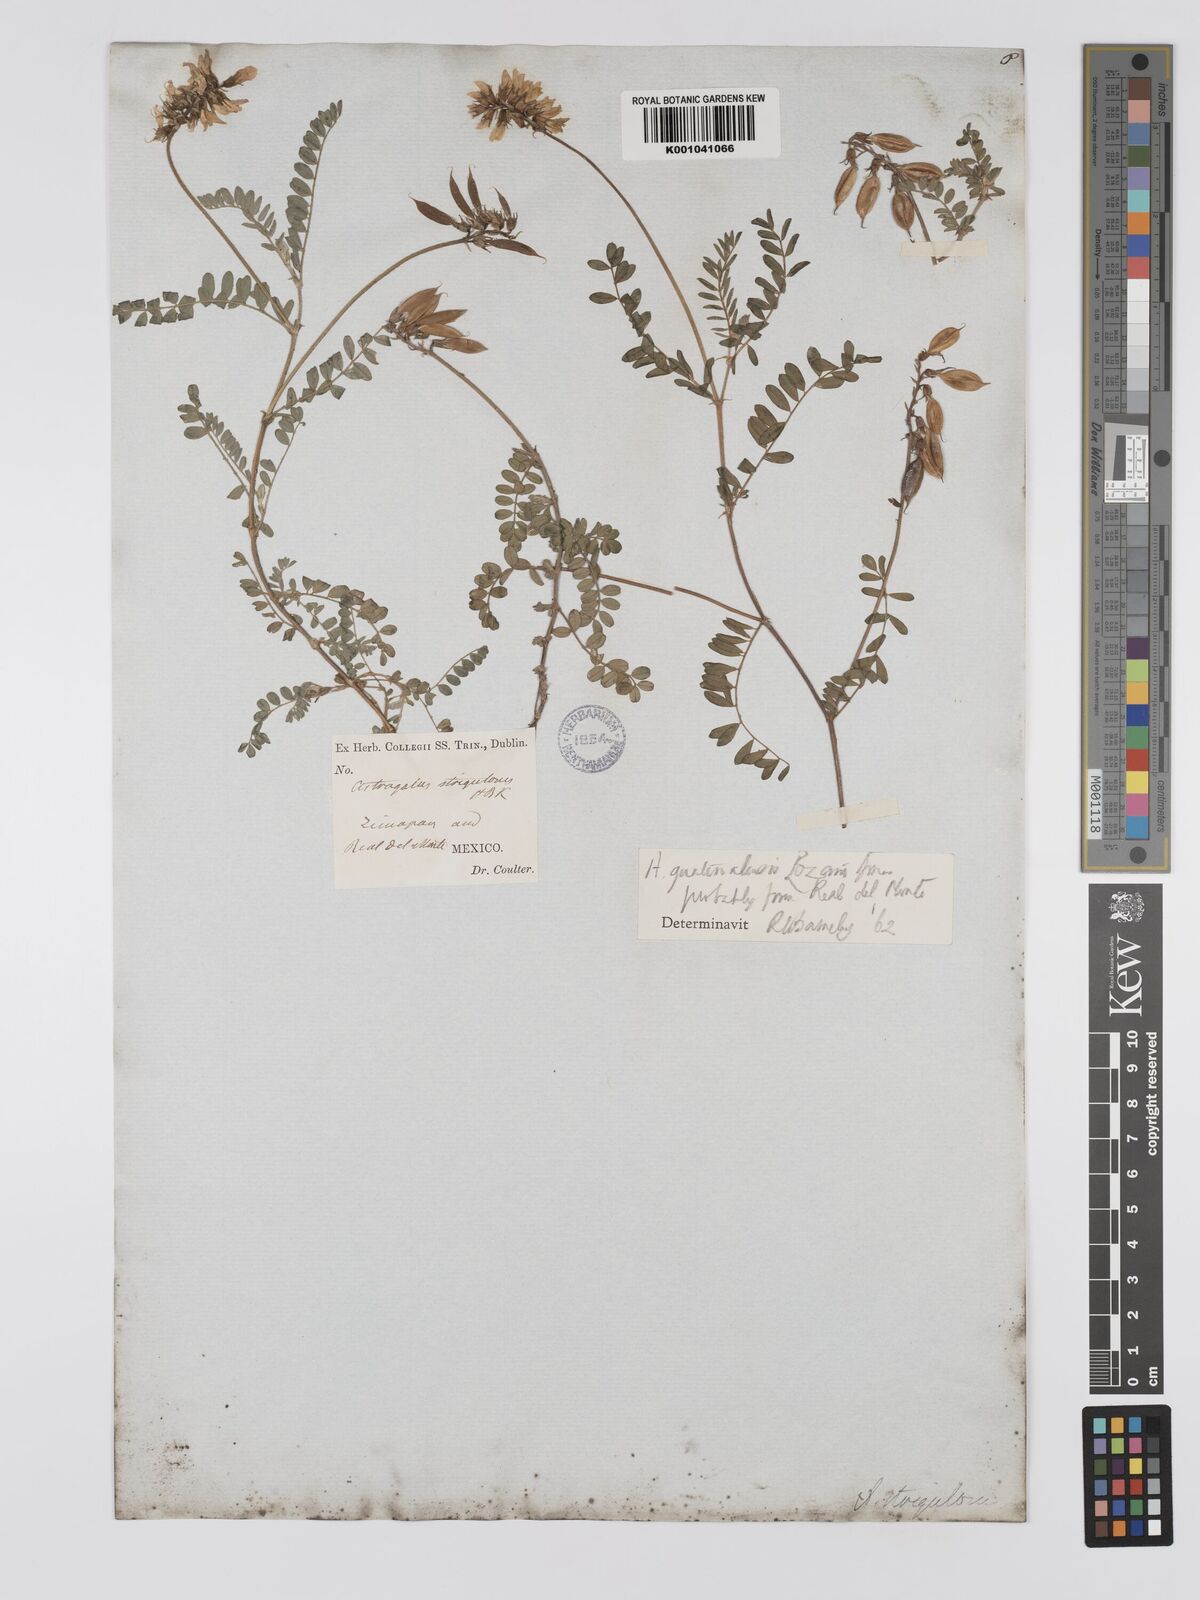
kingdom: Plantae
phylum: Tracheophyta
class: Magnoliopsida
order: Fabales
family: Fabaceae
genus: Astragalus
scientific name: Astragalus guatemalensis
